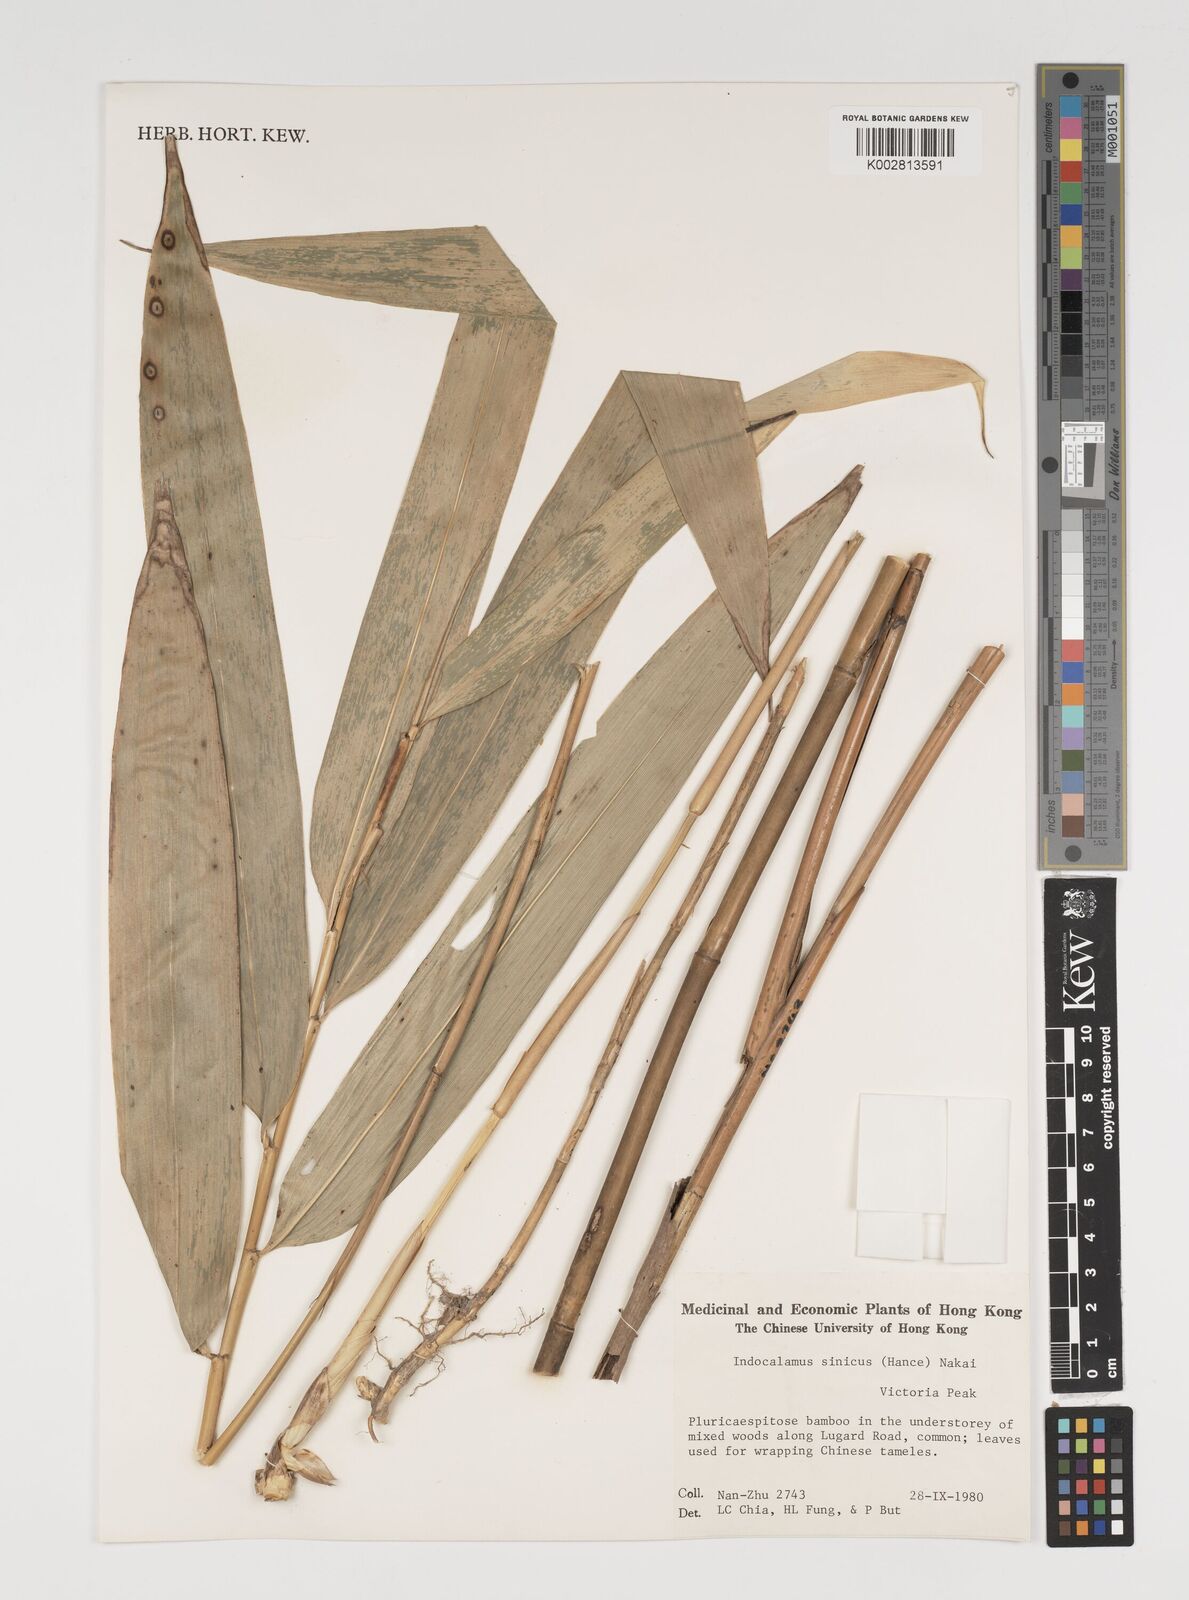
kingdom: Plantae
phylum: Tracheophyta
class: Liliopsida
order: Poales
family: Poaceae
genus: Indocalamus
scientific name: Indocalamus sinicus
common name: Chinese cane
